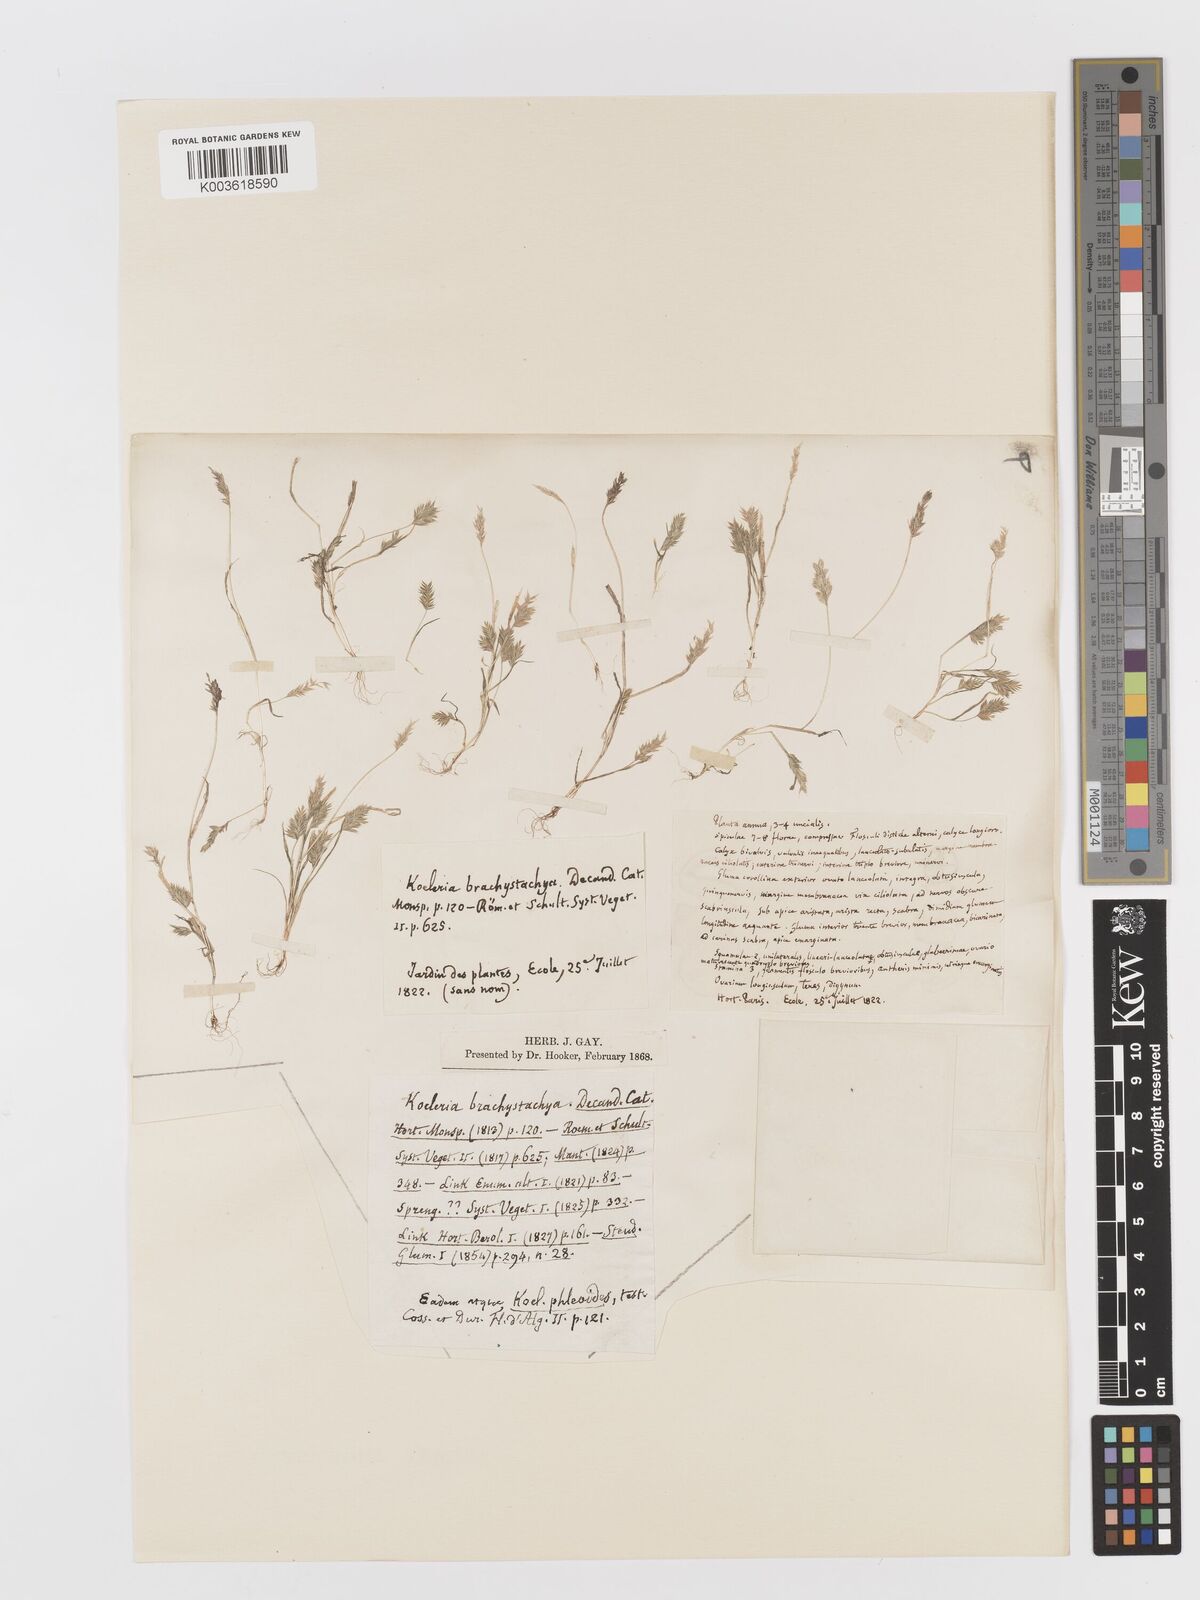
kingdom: Plantae
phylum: Tracheophyta
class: Liliopsida
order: Poales
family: Poaceae
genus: Rostraria
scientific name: Rostraria cristata
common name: Mediterranean hair-grass
